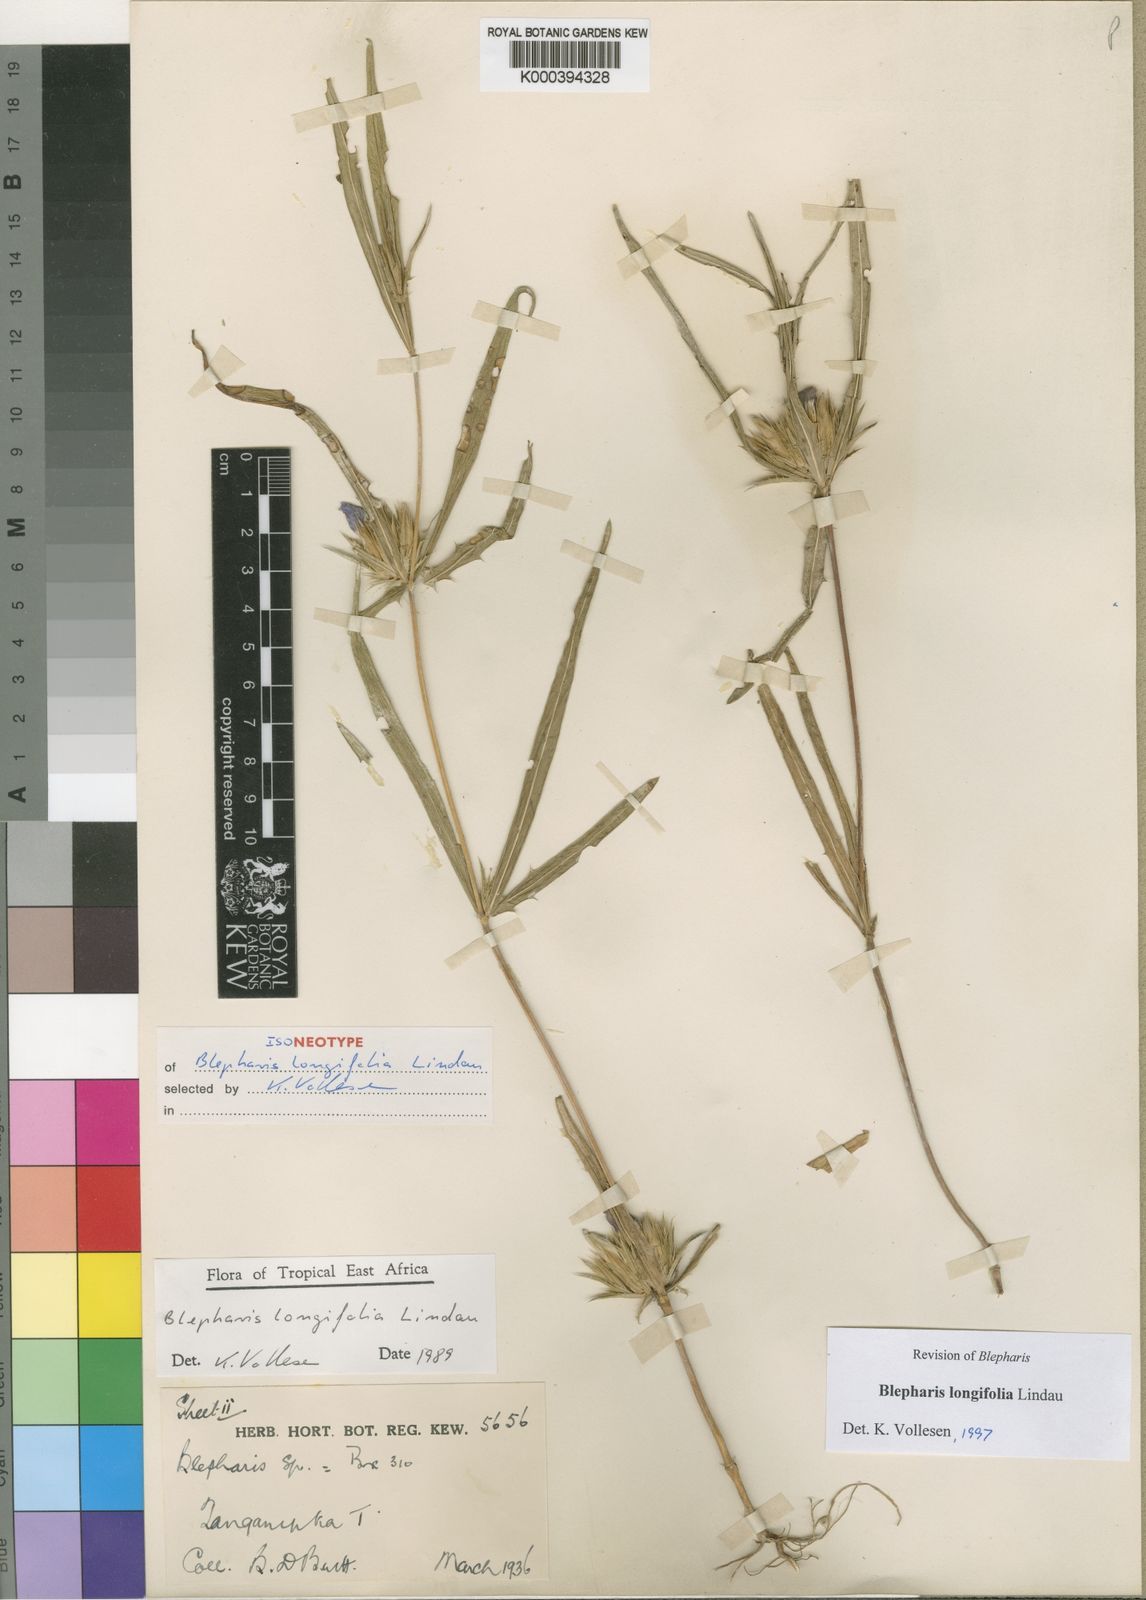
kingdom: Plantae
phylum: Tracheophyta
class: Magnoliopsida
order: Lamiales
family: Acanthaceae
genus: Blepharis
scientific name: Blepharis longifolia
